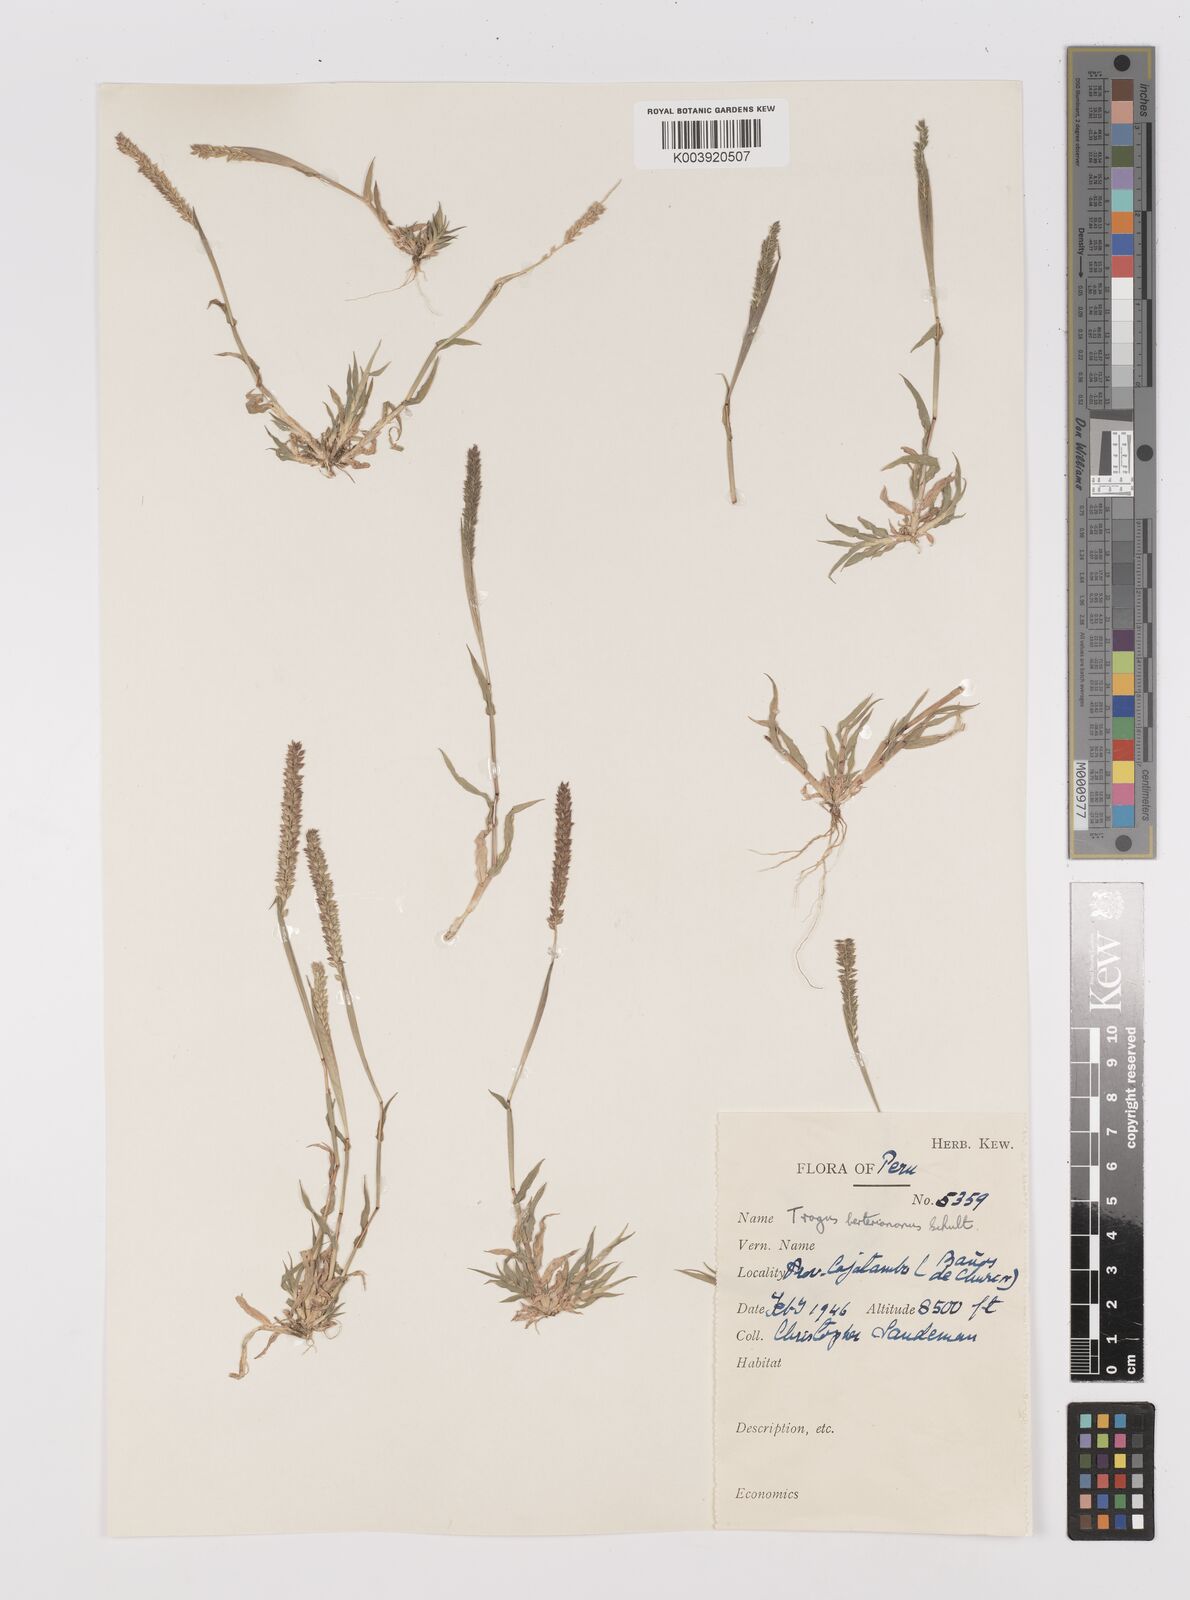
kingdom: Plantae
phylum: Tracheophyta
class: Liliopsida
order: Poales
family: Poaceae
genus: Tragus
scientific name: Tragus berteronianus
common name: African bur-grass
